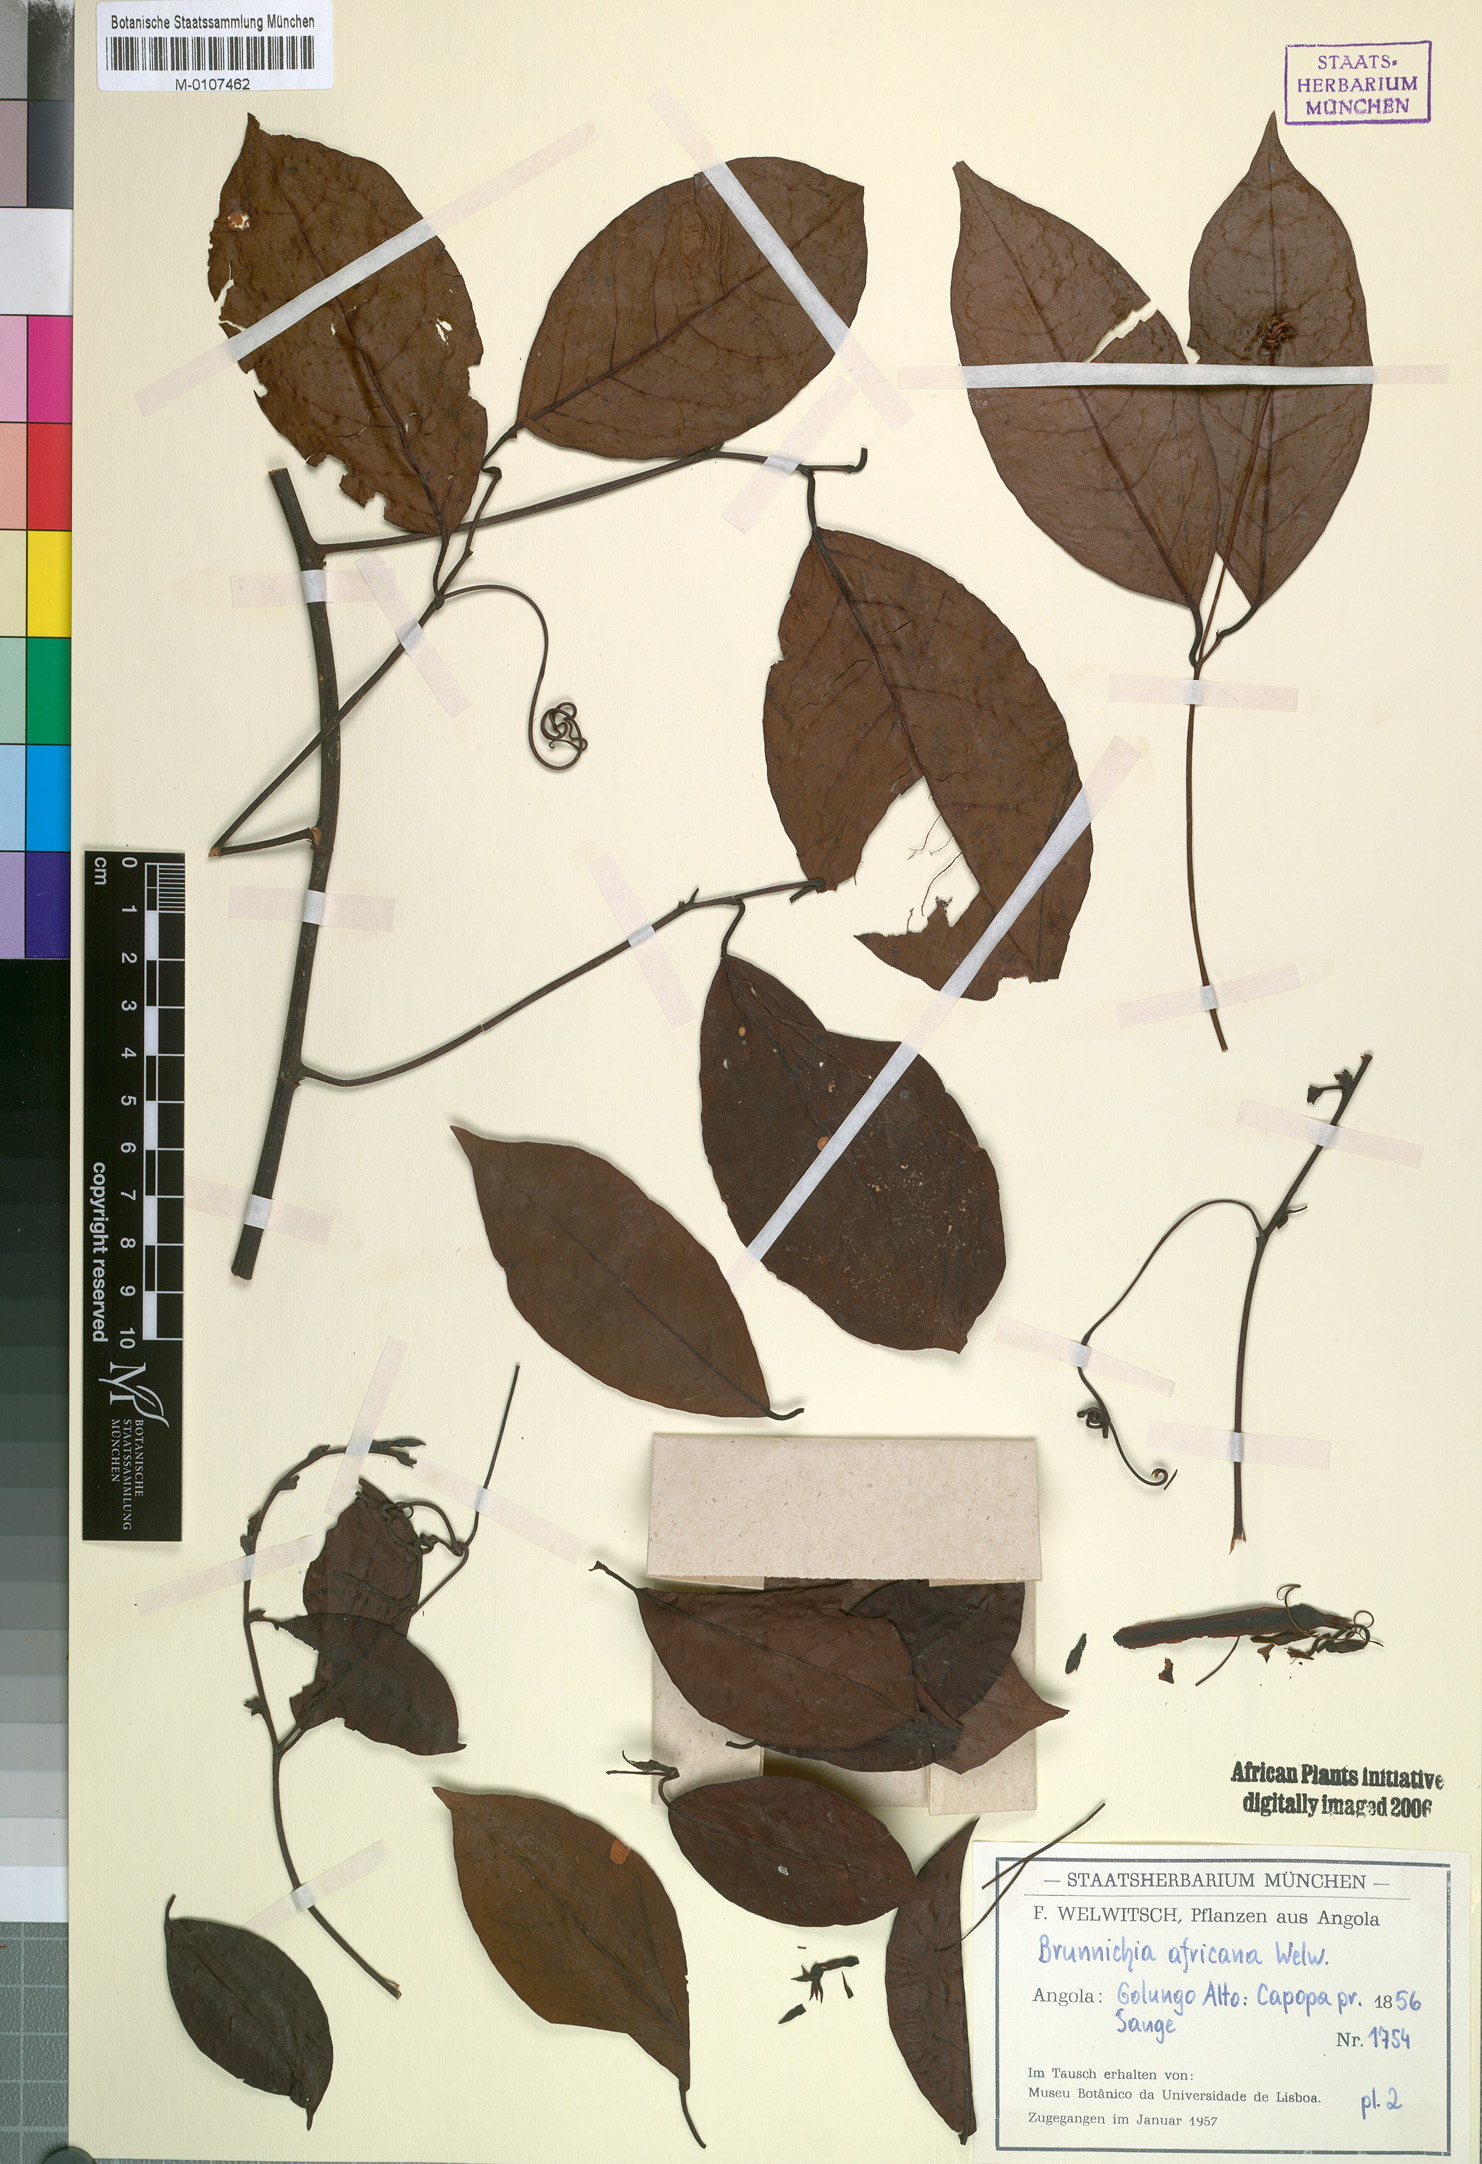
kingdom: Plantae
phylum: Tracheophyta
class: Magnoliopsida
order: Caryophyllales
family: Polygonaceae
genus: Afrobrunnichia
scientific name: Afrobrunnichia africana
